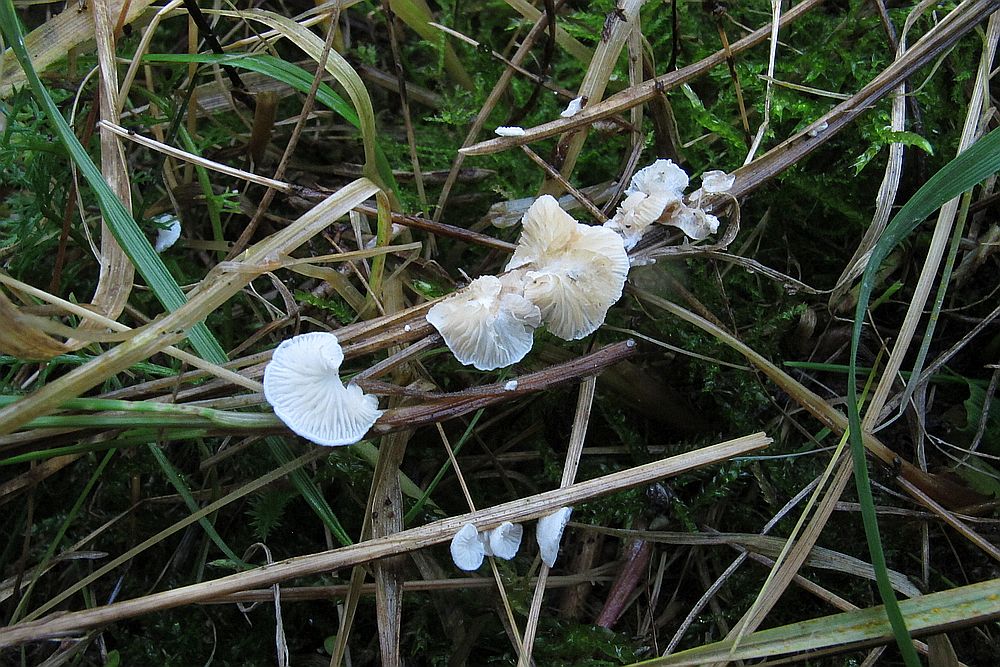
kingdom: Fungi
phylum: Basidiomycota
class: Agaricomycetes
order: Agaricales
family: Crepidotaceae
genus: Crepidotus
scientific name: Crepidotus epibryus
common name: førne-muslingesvamp
